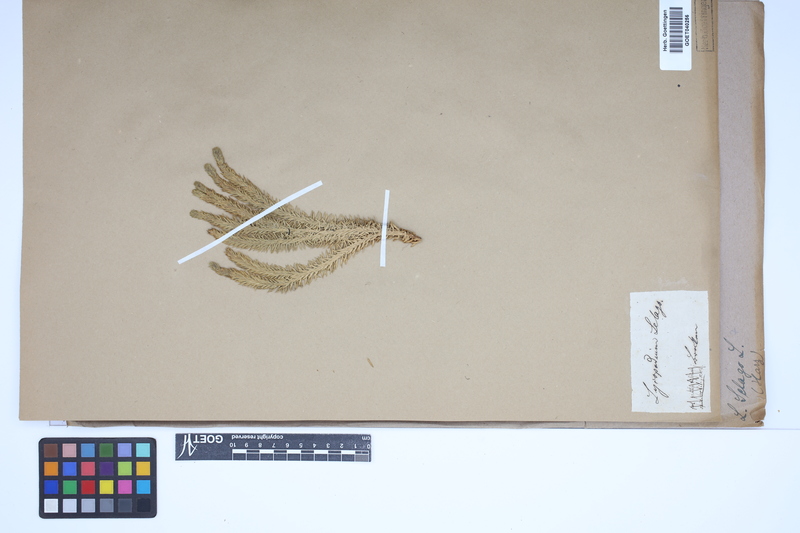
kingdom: Plantae
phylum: Tracheophyta
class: Lycopodiopsida
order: Lycopodiales
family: Lycopodiaceae
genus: Huperzia
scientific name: Huperzia selago
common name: Northern firmoss
